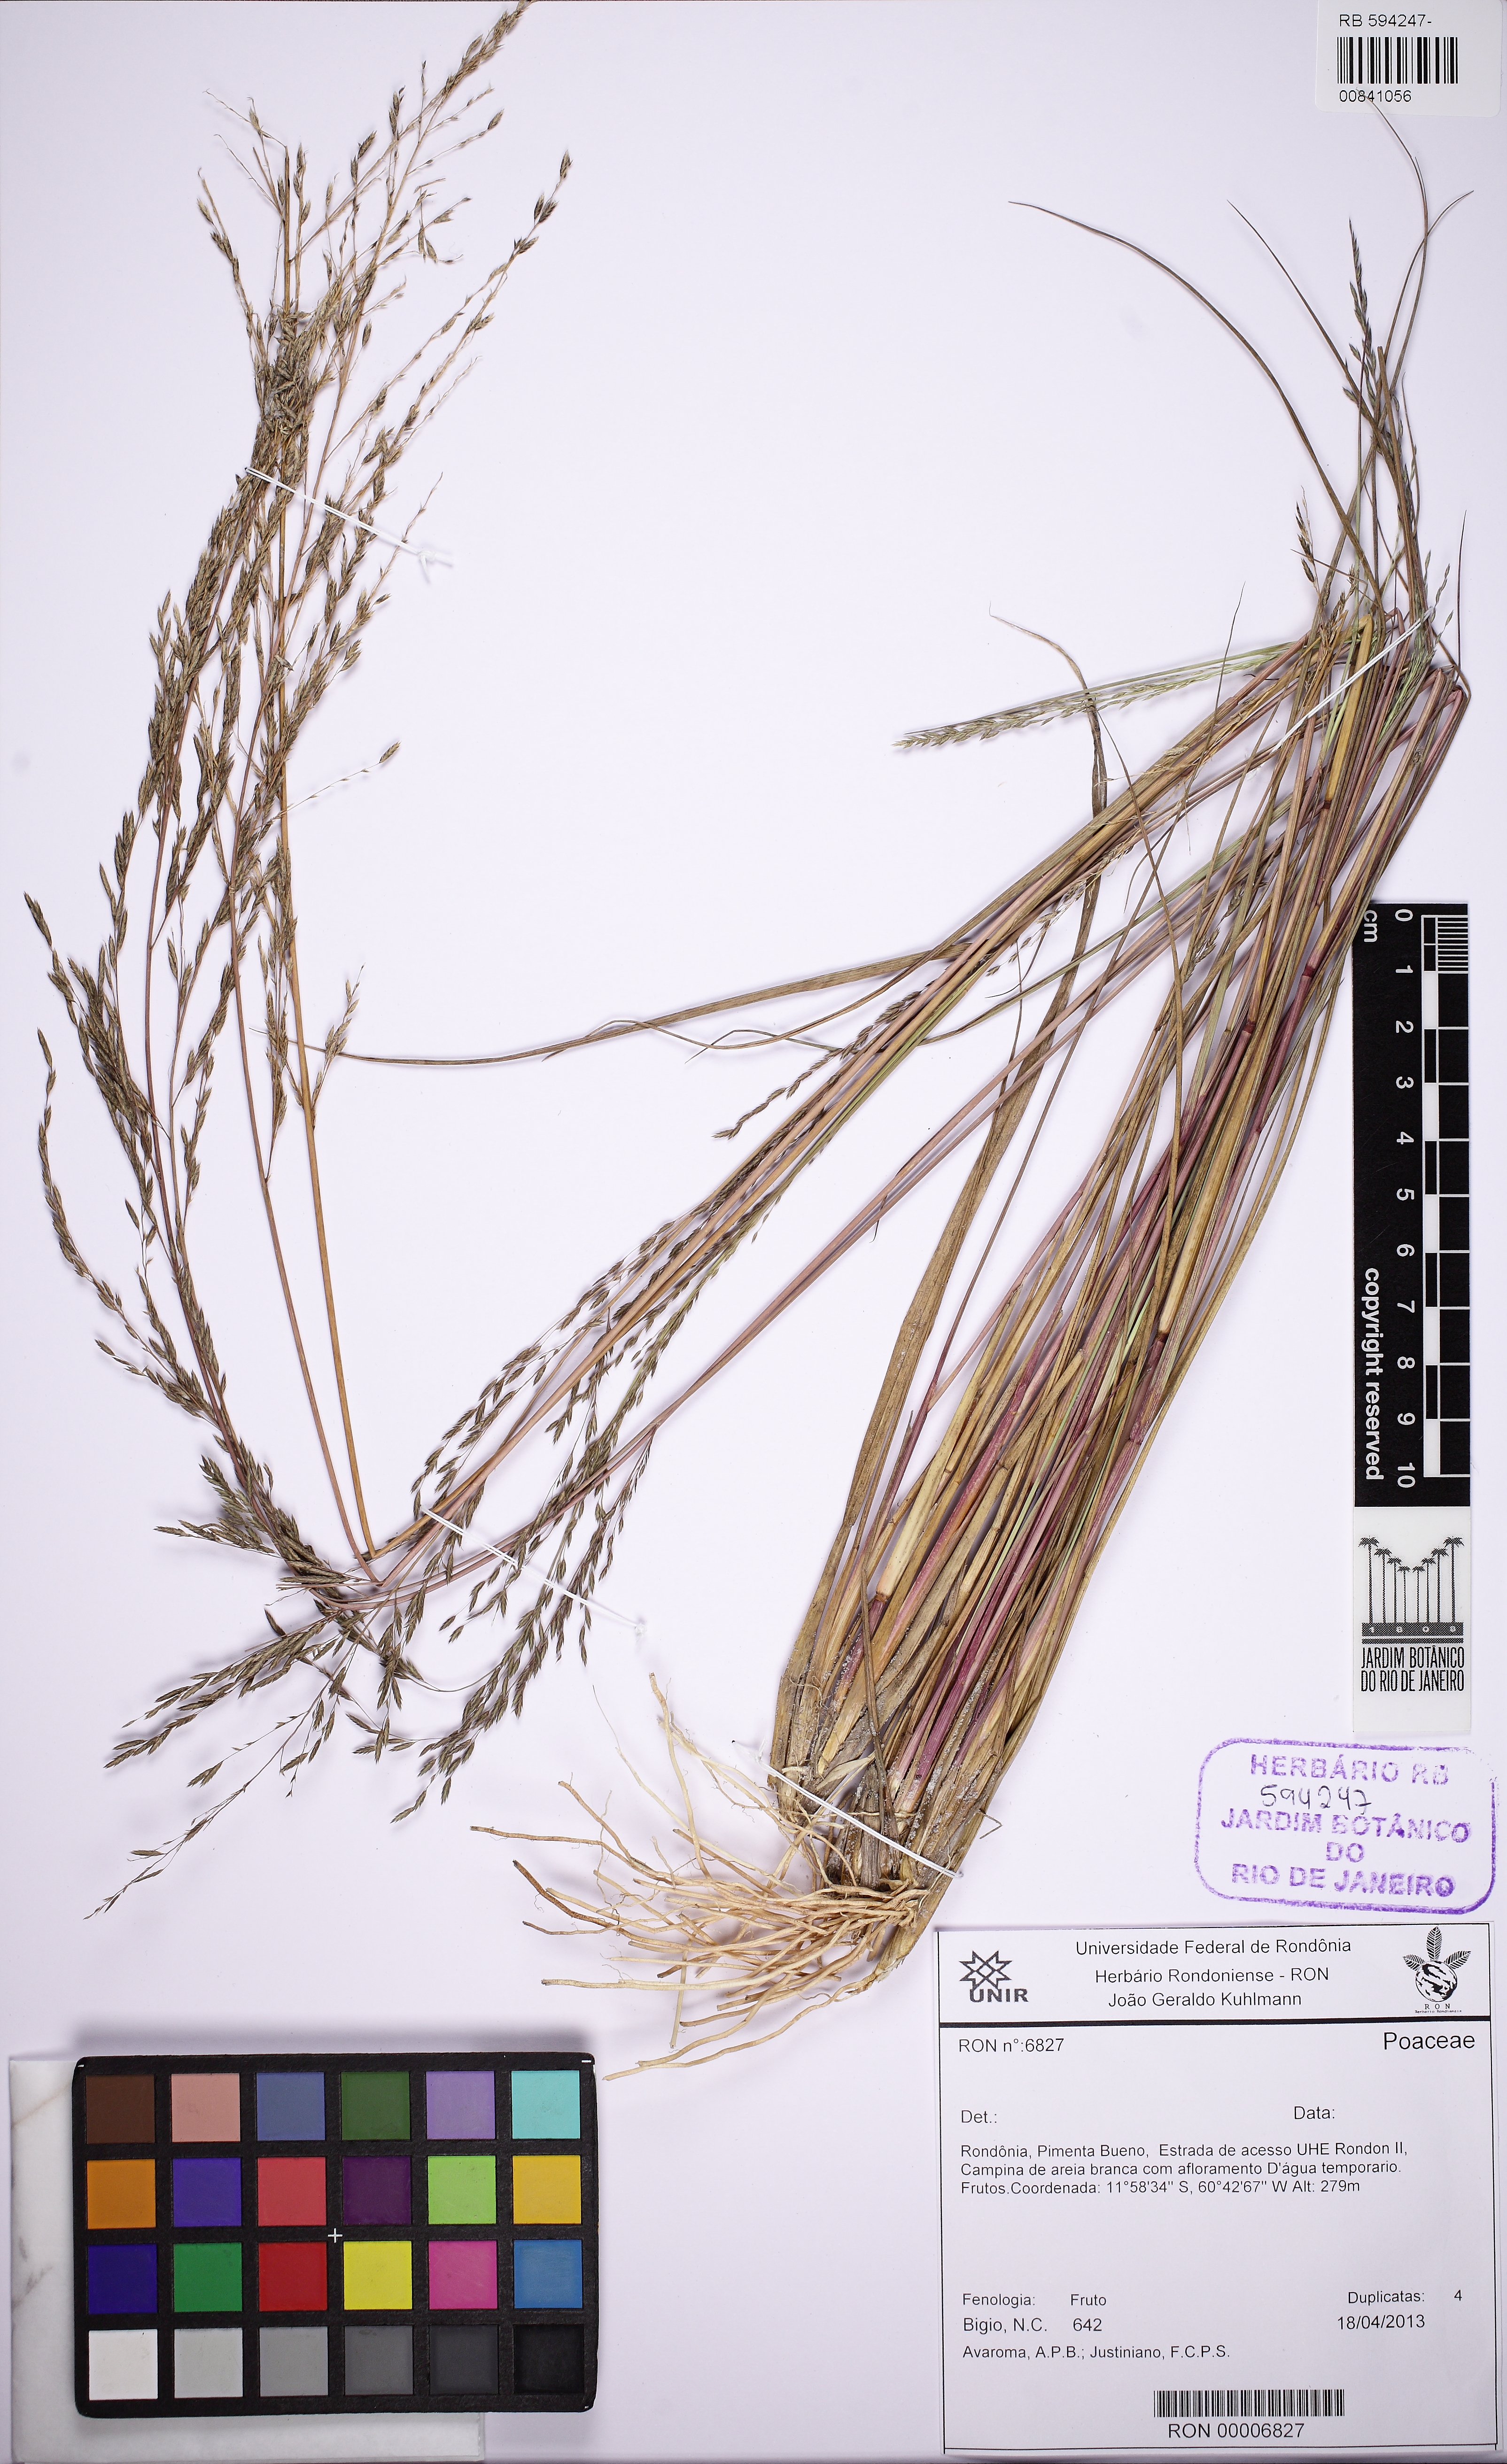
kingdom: Plantae
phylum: Tracheophyta
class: Liliopsida
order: Poales
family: Poaceae
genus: Eragrostis
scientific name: Eragrostis
